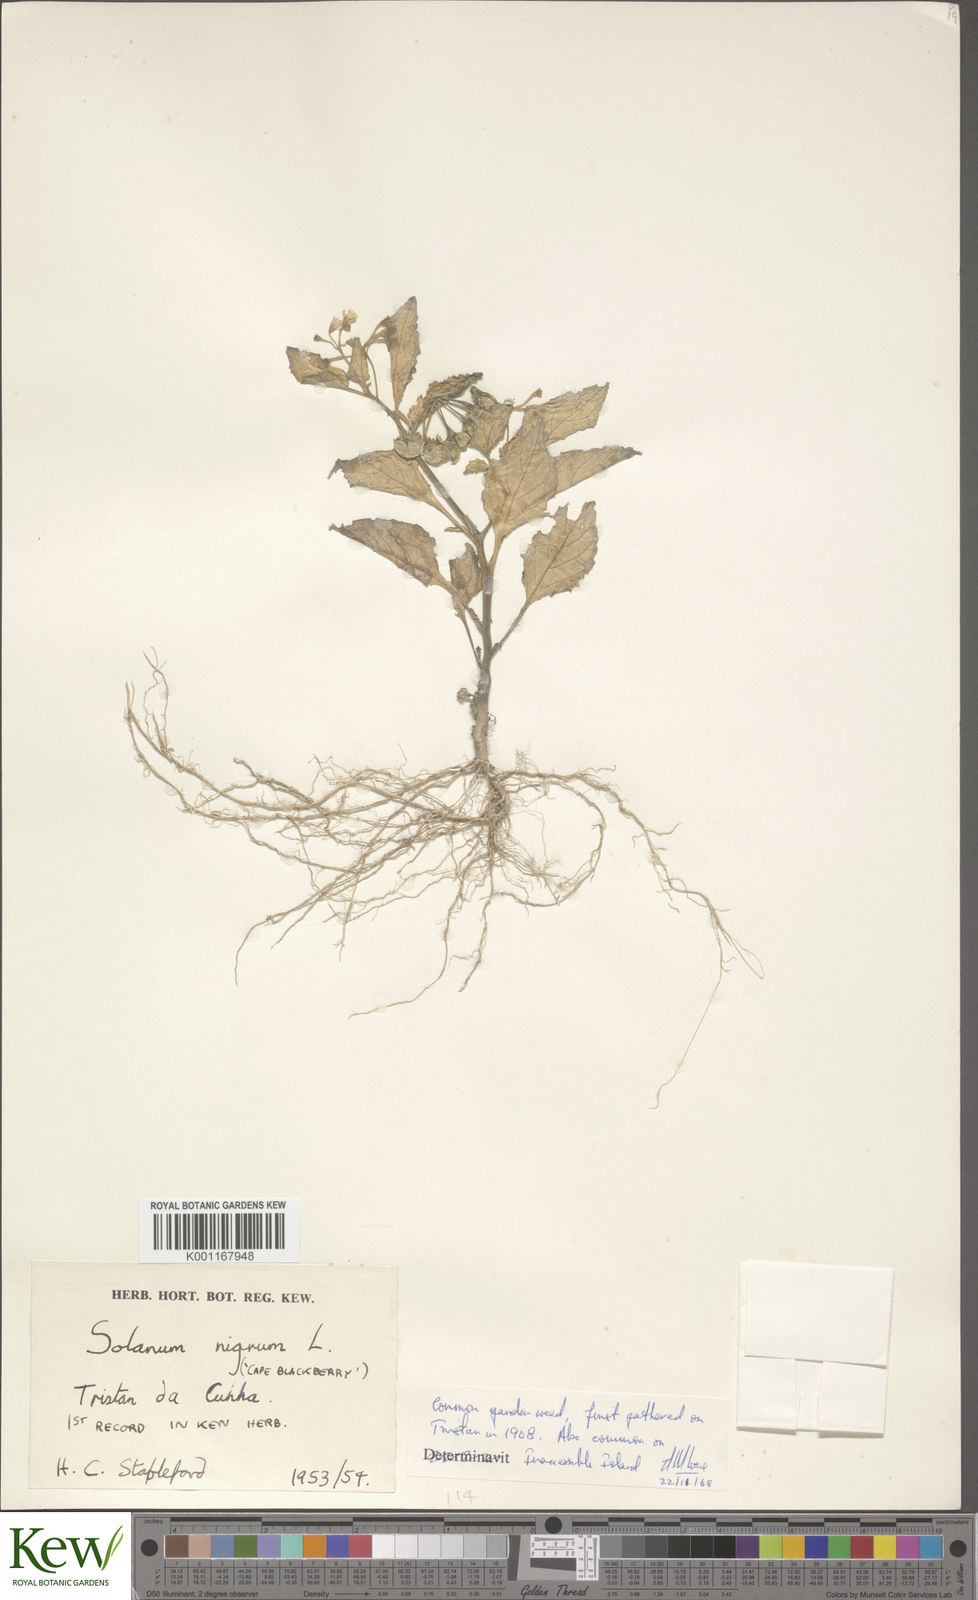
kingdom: Plantae
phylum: Tracheophyta
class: Magnoliopsida
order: Solanales
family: Solanaceae
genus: Solanum
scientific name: Solanum nigrum
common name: Black nightshade
